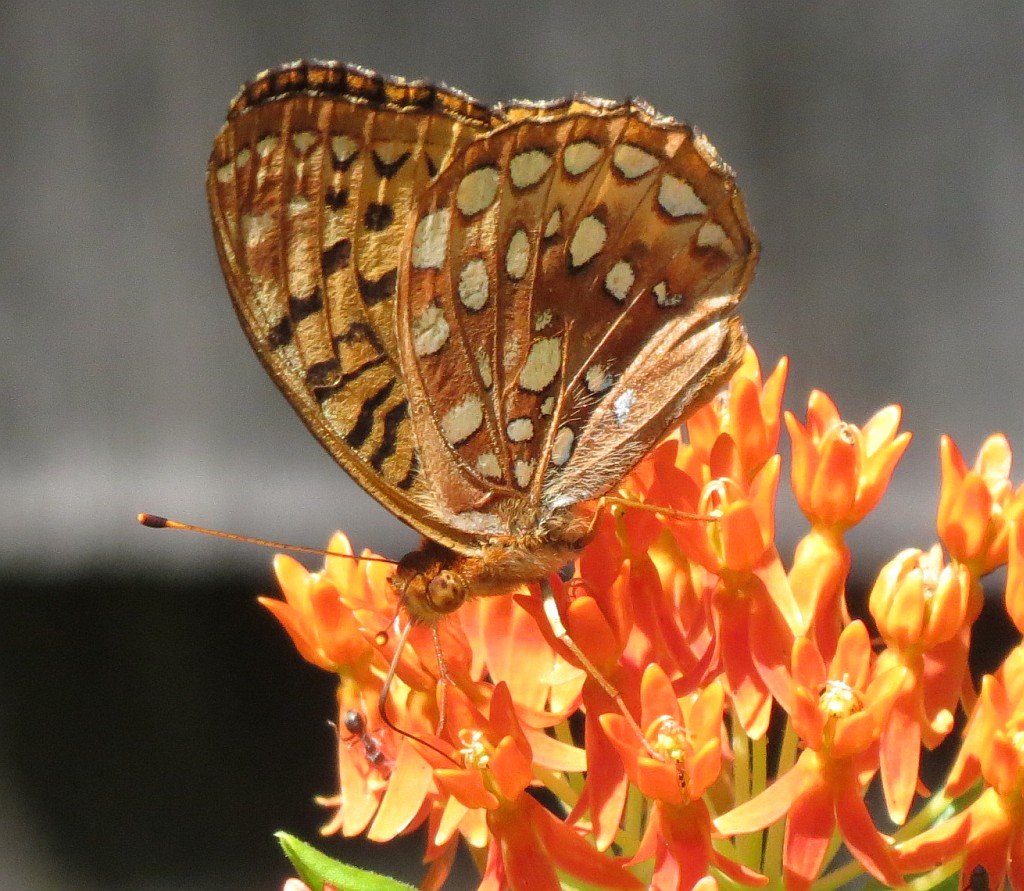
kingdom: Animalia
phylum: Arthropoda
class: Insecta
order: Lepidoptera
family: Nymphalidae
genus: Speyeria
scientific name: Speyeria cybele
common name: Great Spangled Fritillary
